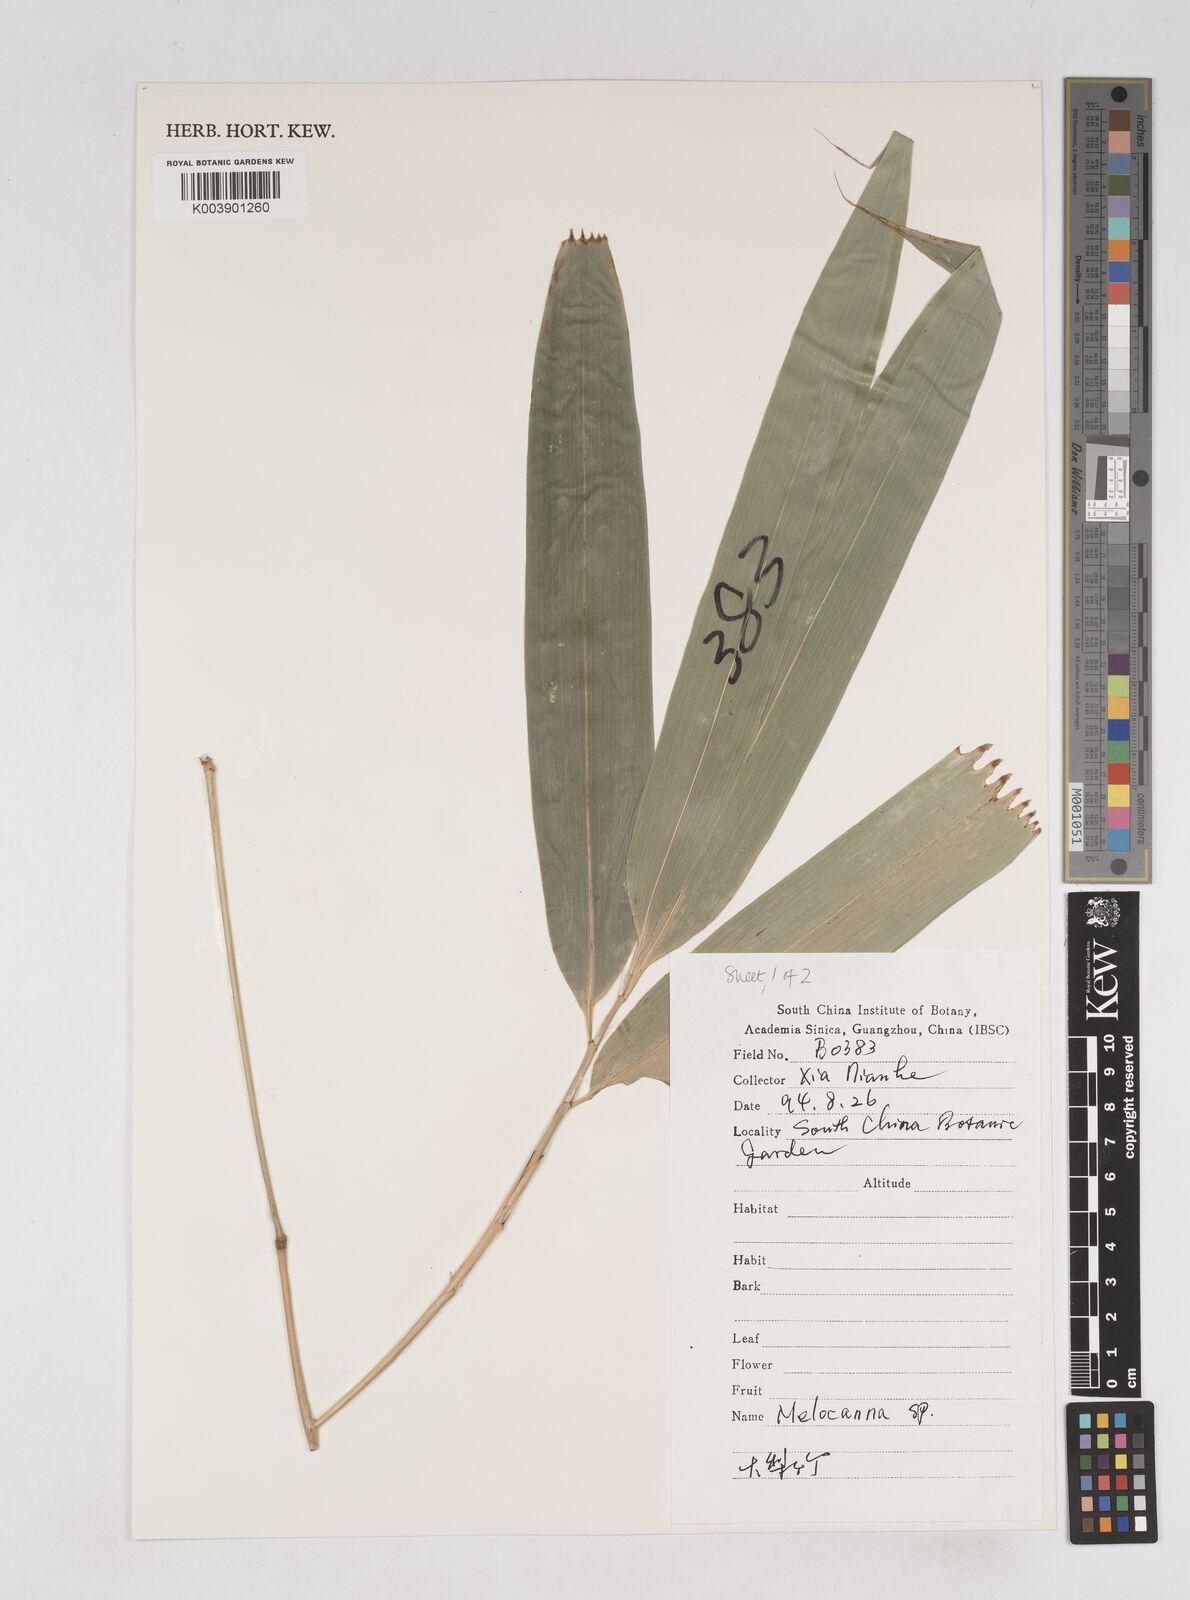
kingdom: Plantae
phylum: Tracheophyta
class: Liliopsida
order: Poales
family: Poaceae
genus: Melocanna
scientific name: Melocanna
